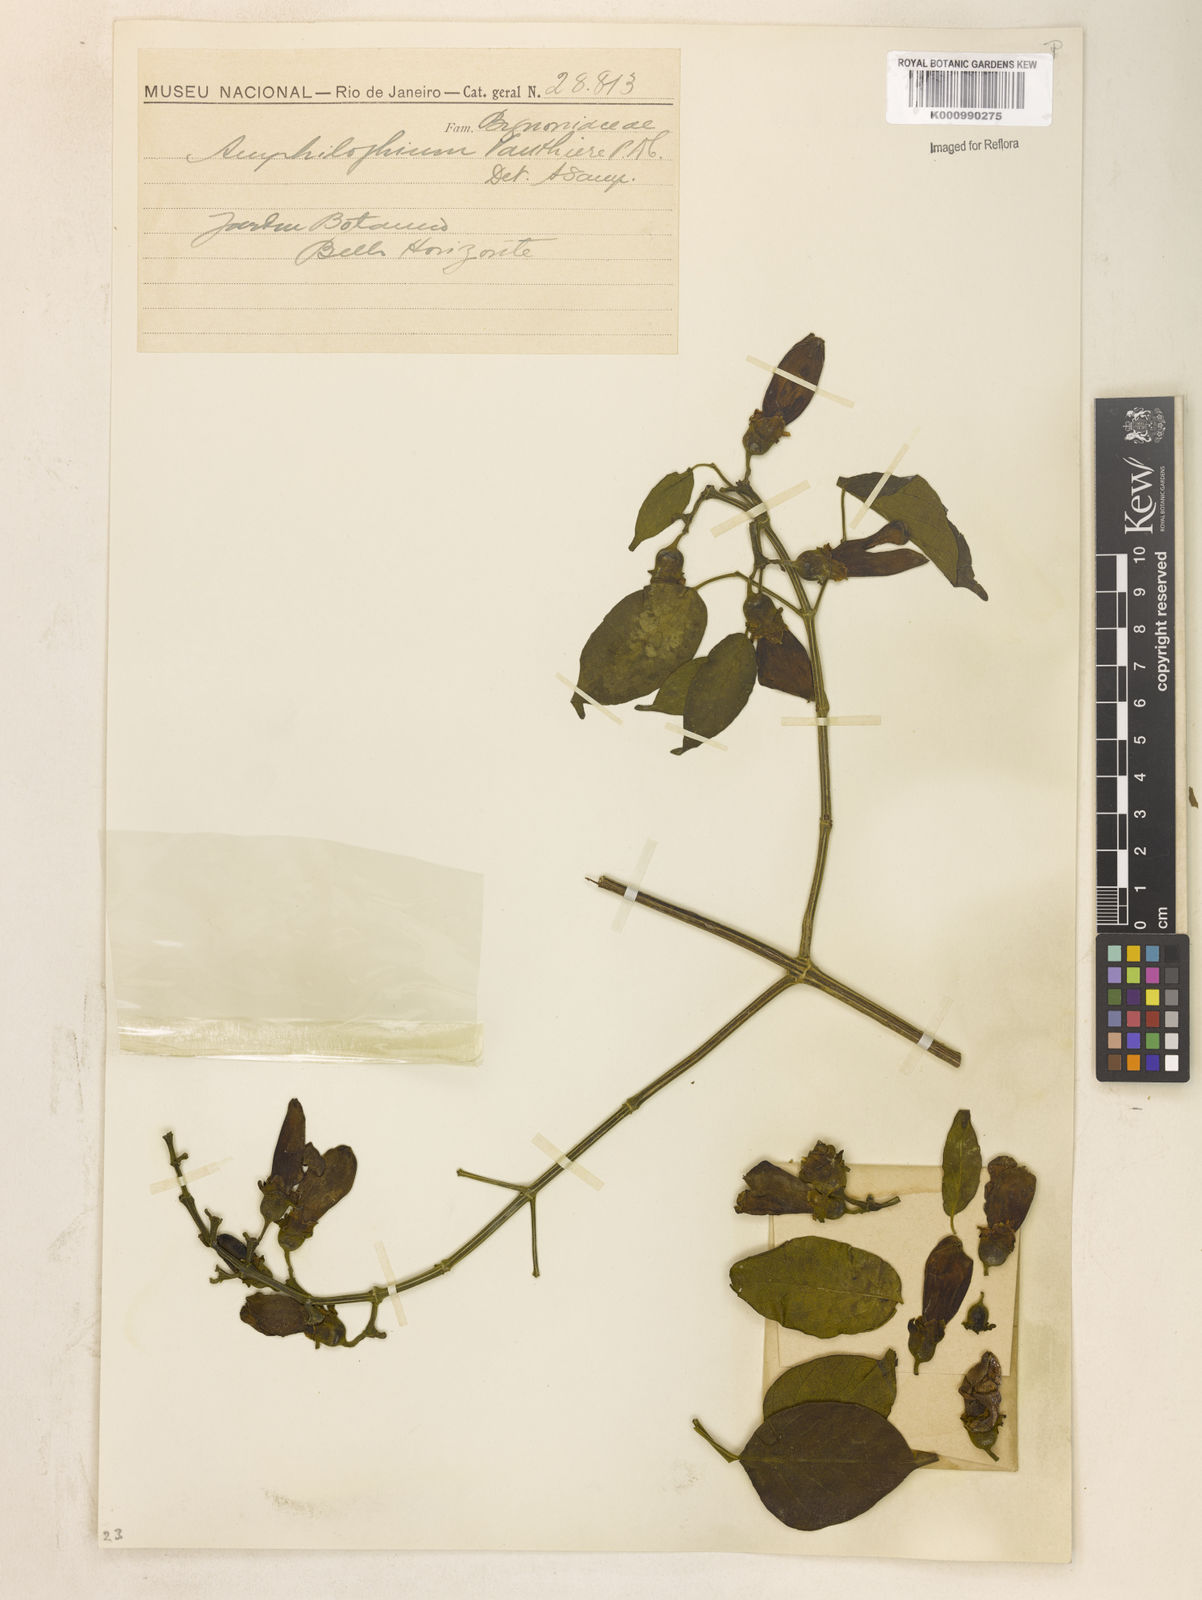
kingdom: Plantae
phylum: Tracheophyta
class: Magnoliopsida
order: Lamiales
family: Bignoniaceae
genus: Amphilophium
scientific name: Amphilophium paniculatum
